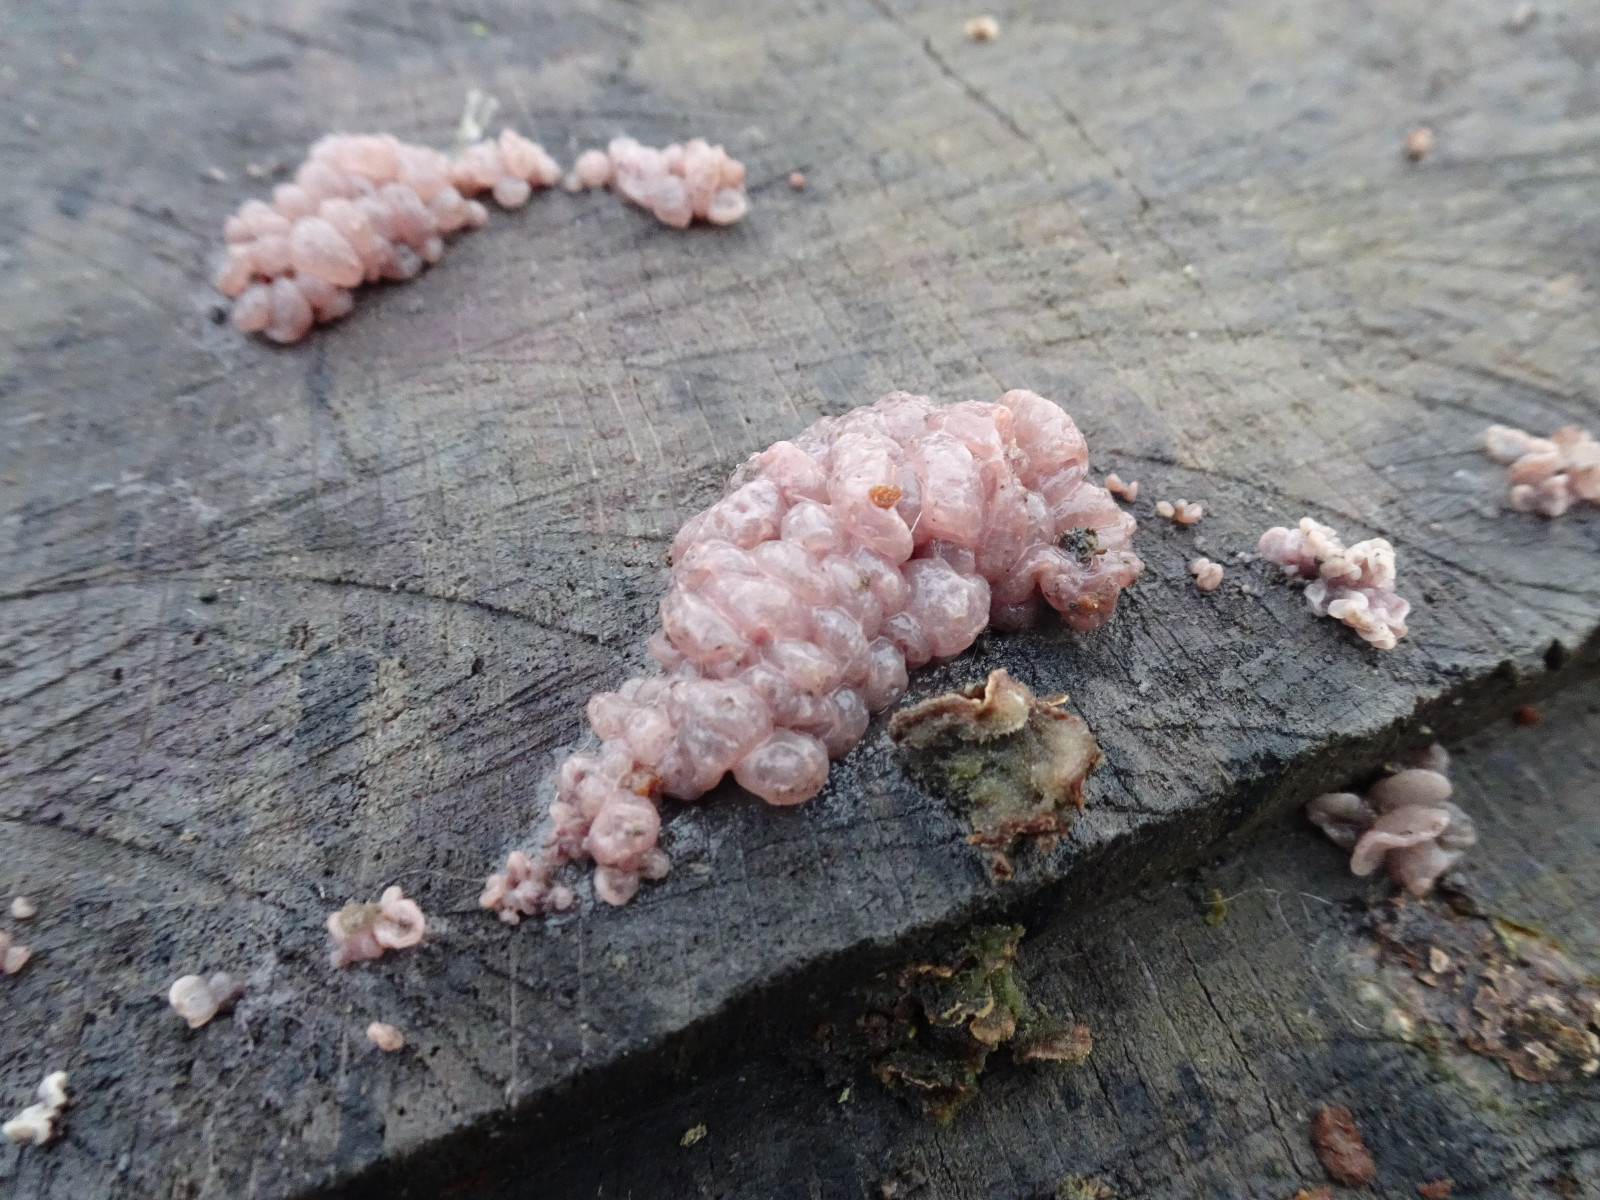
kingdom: Fungi
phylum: Ascomycota
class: Leotiomycetes
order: Helotiales
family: Gelatinodiscaceae
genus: Ascocoryne
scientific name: Ascocoryne sarcoides
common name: rødlilla sejskive
